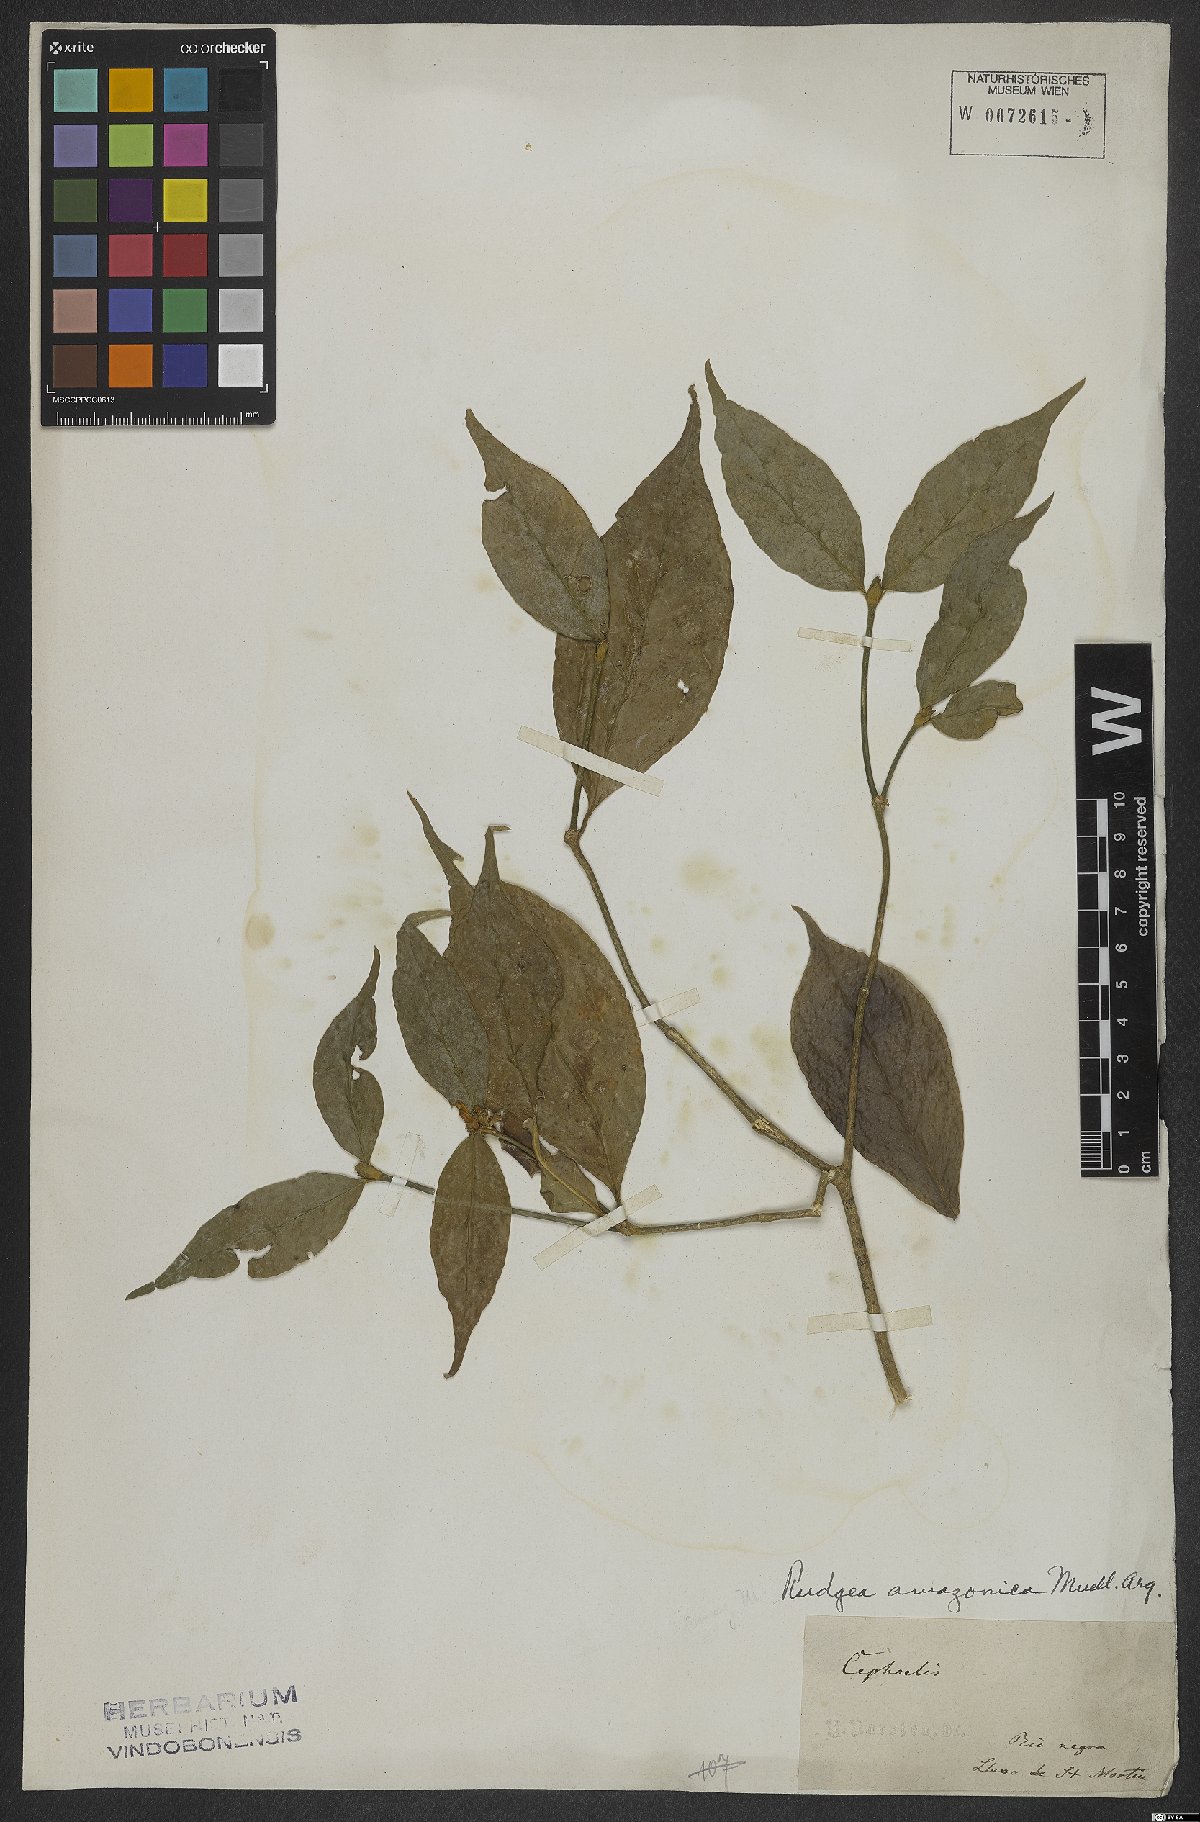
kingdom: Plantae
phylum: Tracheophyta
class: Magnoliopsida
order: Gentianales
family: Rubiaceae
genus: Rudgea
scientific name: Rudgea amazonica
